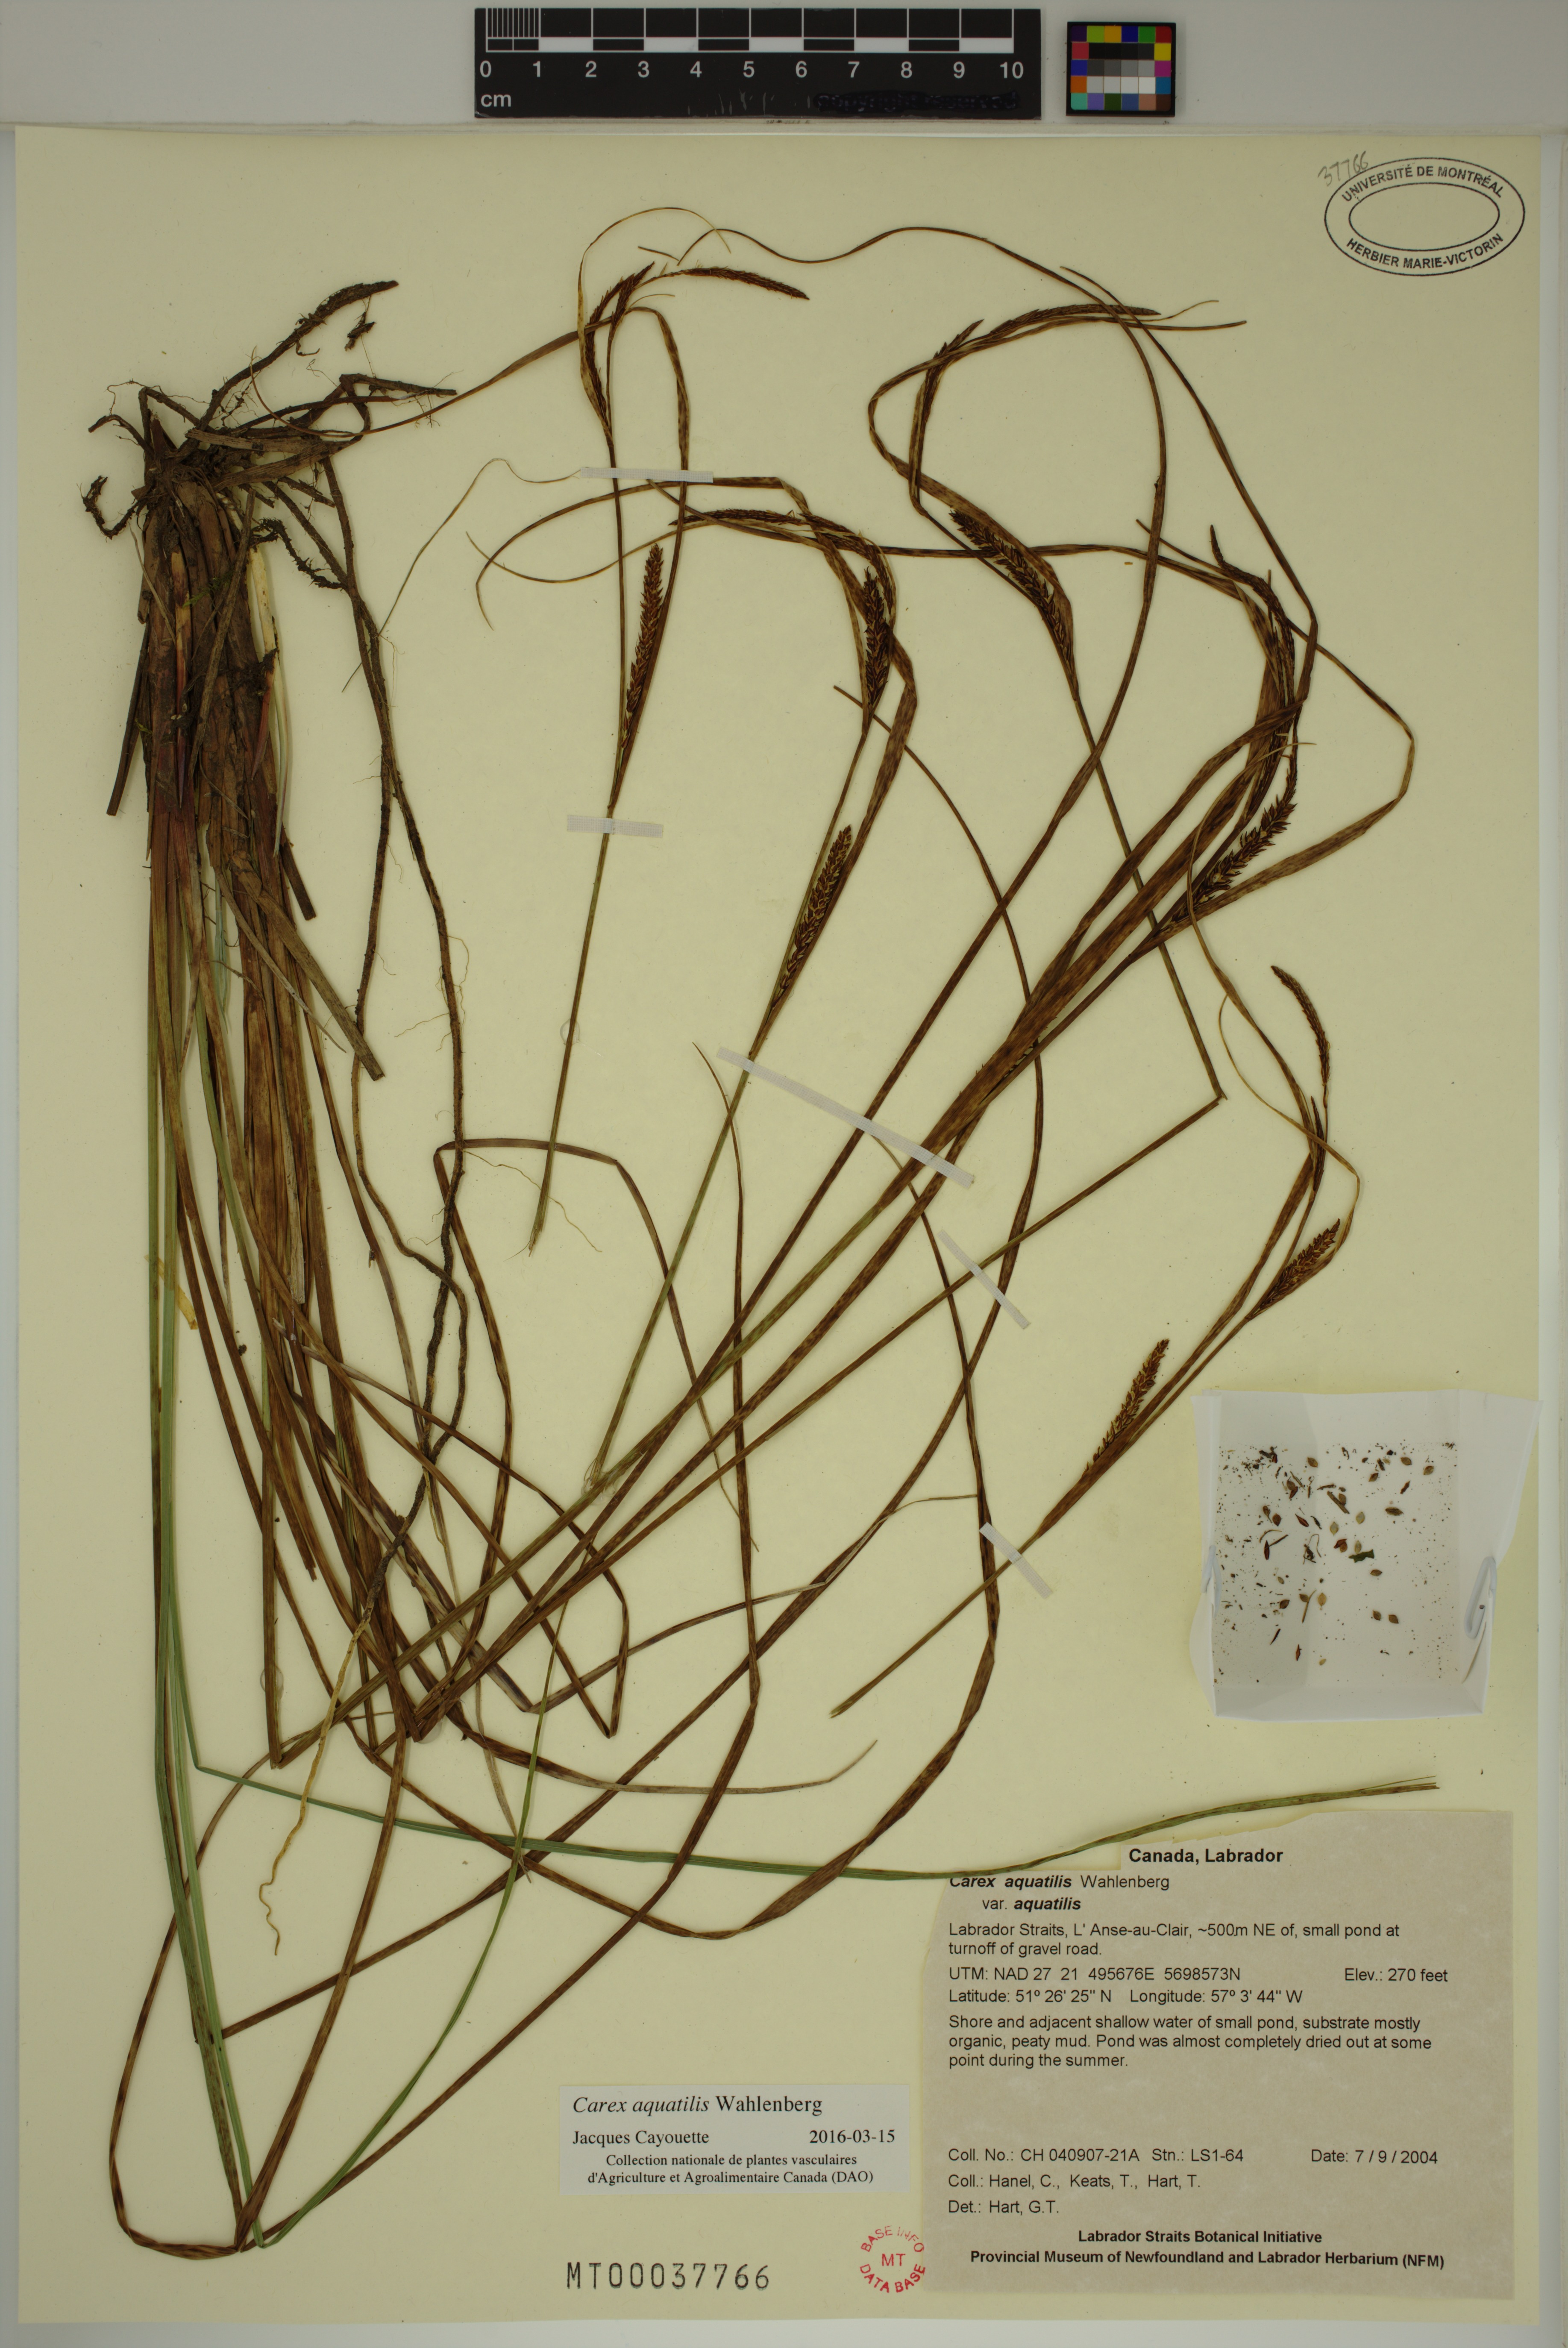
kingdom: Plantae
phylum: Tracheophyta
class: Liliopsida
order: Poales
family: Cyperaceae
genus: Carex
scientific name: Carex aquatilis
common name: Water sedge
